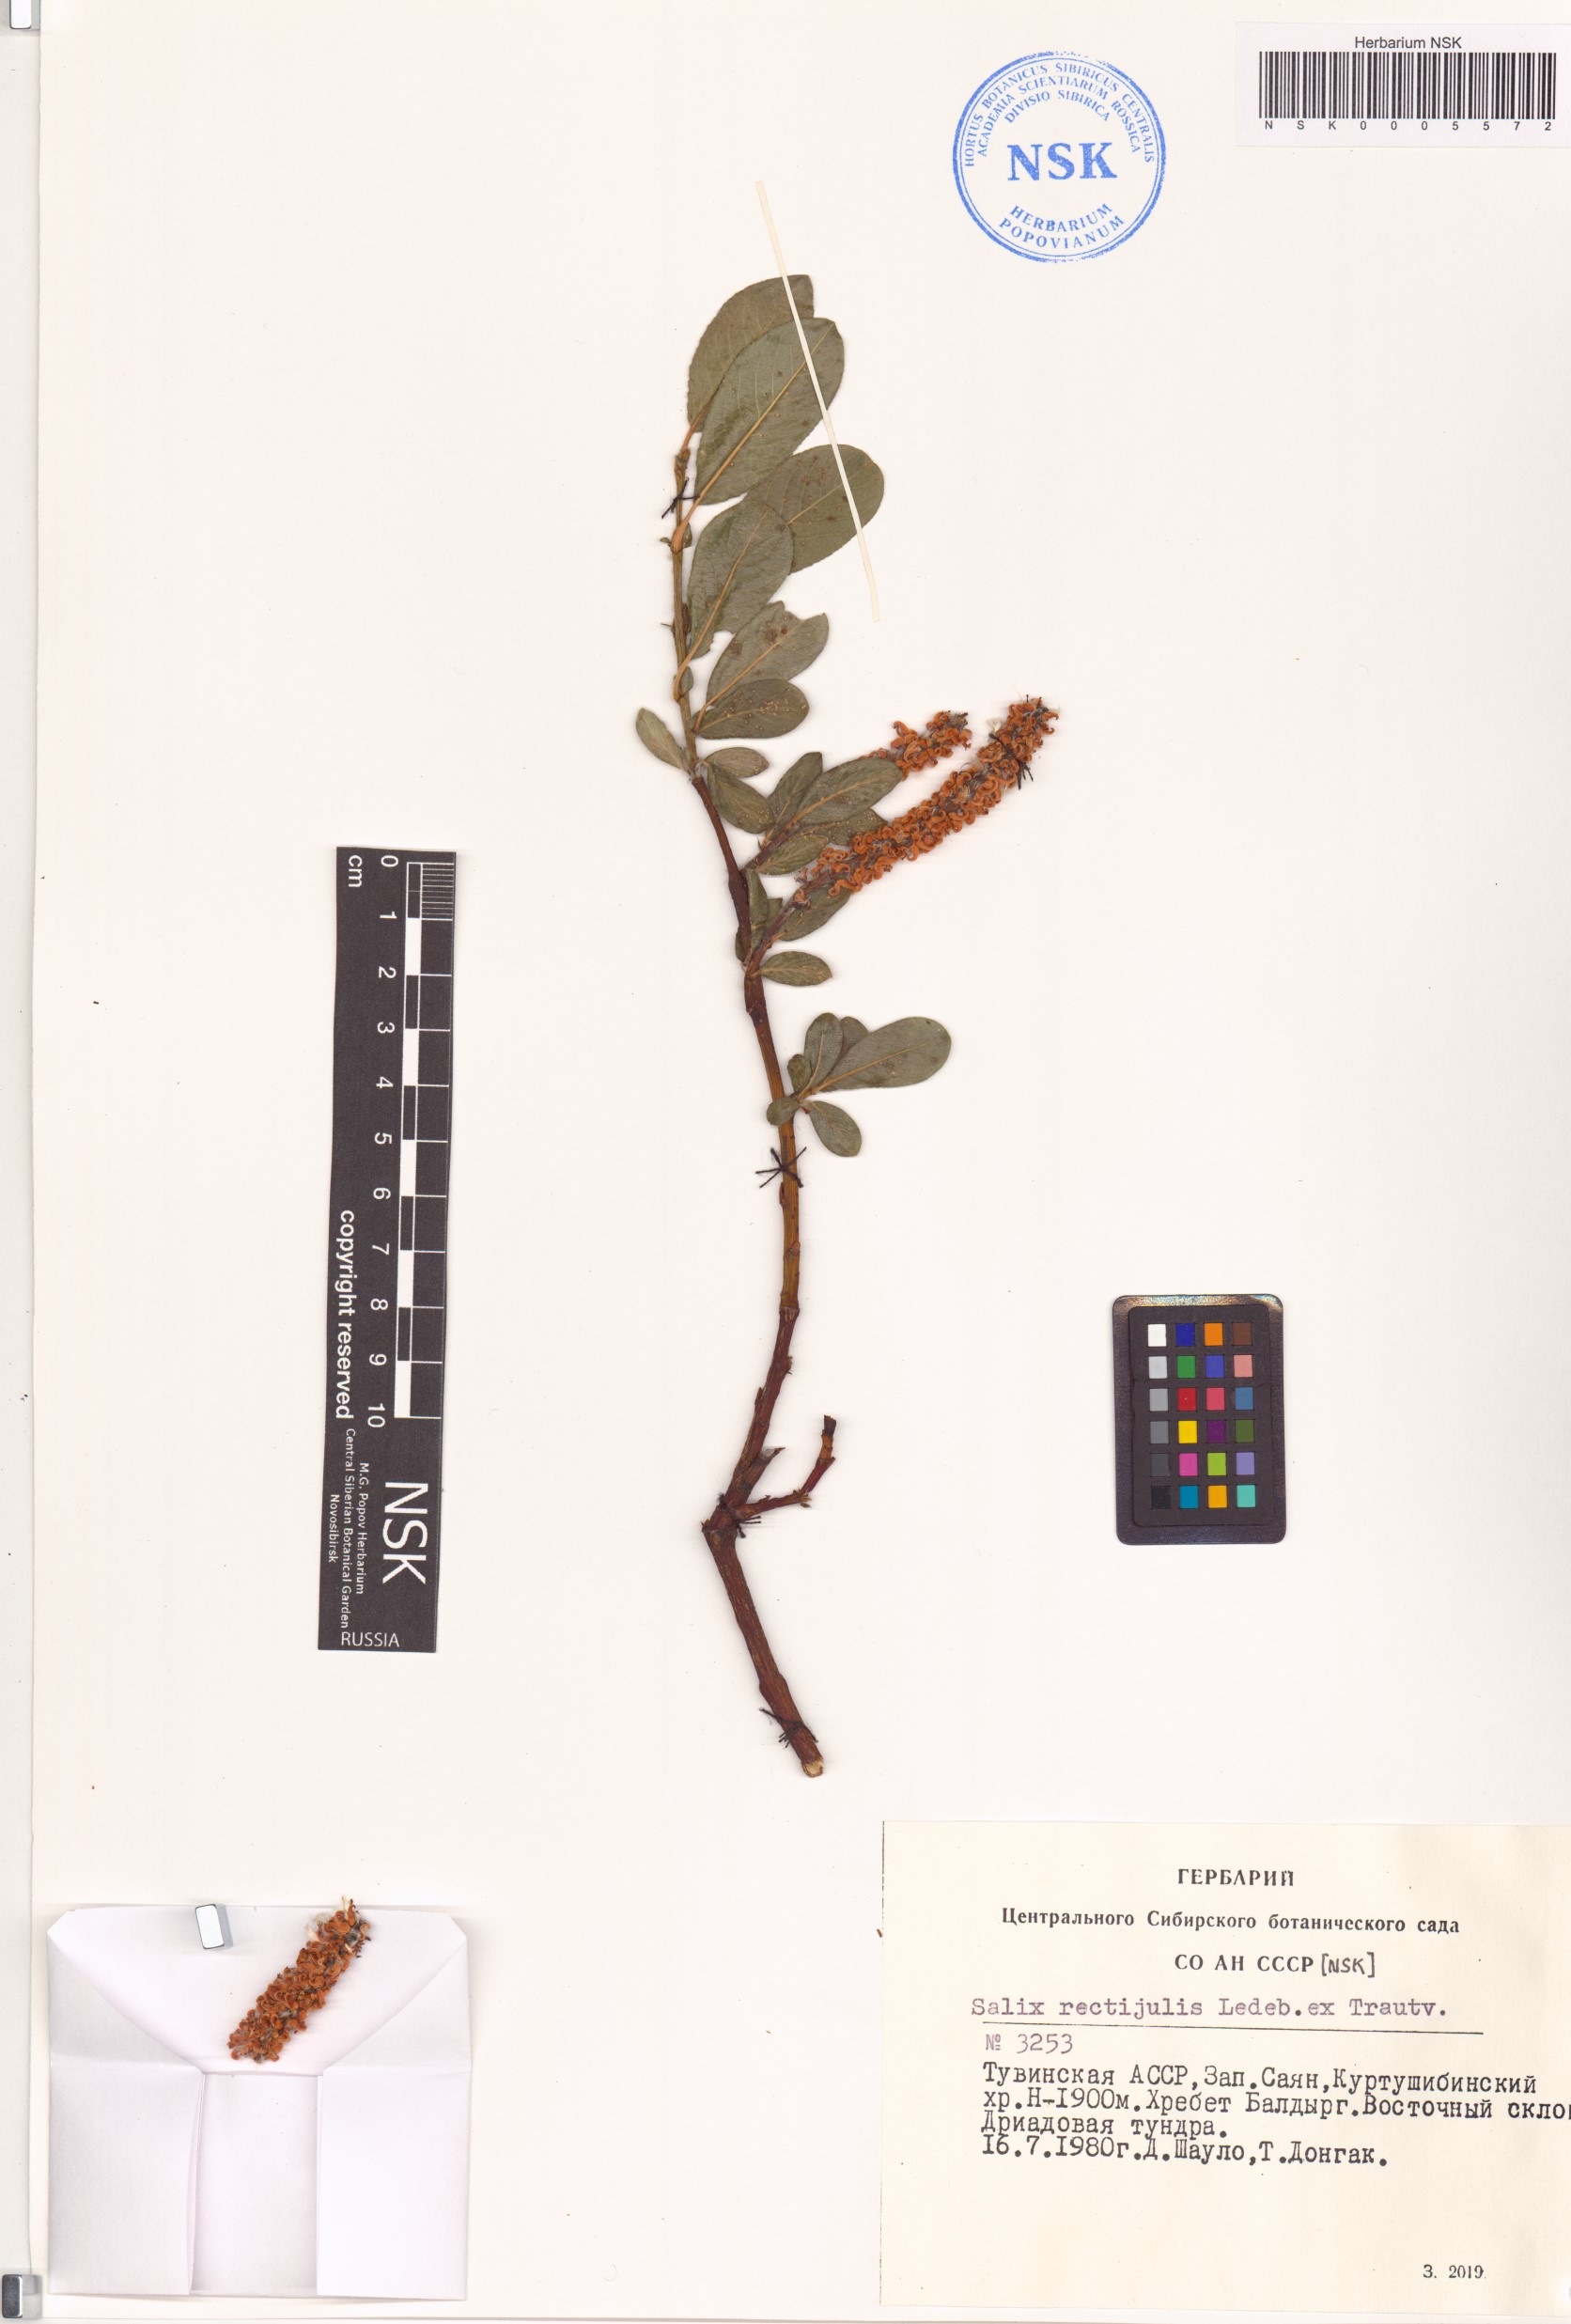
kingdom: Plantae
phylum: Tracheophyta
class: Magnoliopsida
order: Malpighiales
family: Salicaceae
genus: Salix
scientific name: Salix rectijulis
